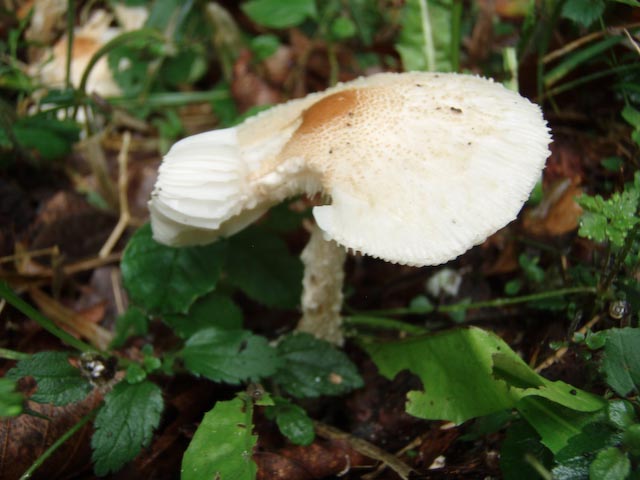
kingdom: Fungi
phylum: Basidiomycota
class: Agaricomycetes
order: Agaricales
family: Agaricaceae
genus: Lepiota
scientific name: Lepiota clypeolaria
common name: flosset parasolhat
